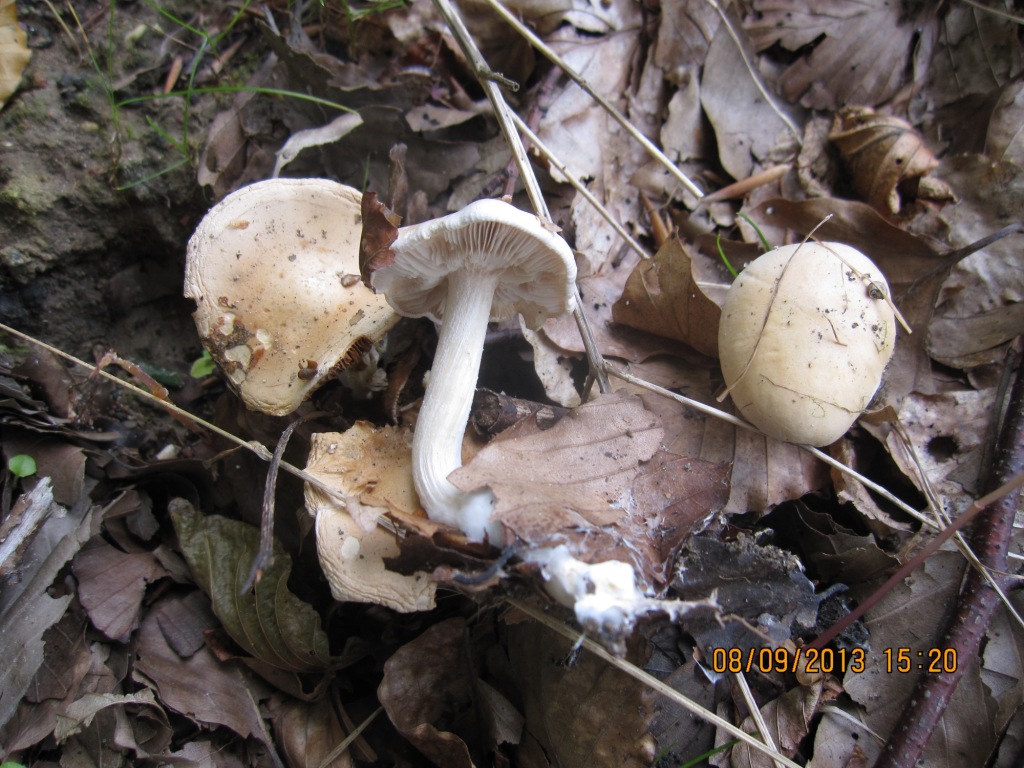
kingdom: Fungi
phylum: Basidiomycota
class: Agaricomycetes
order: Agaricales
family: Hymenogastraceae
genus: Hebeloma
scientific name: Hebeloma album
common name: skør tåreblad
